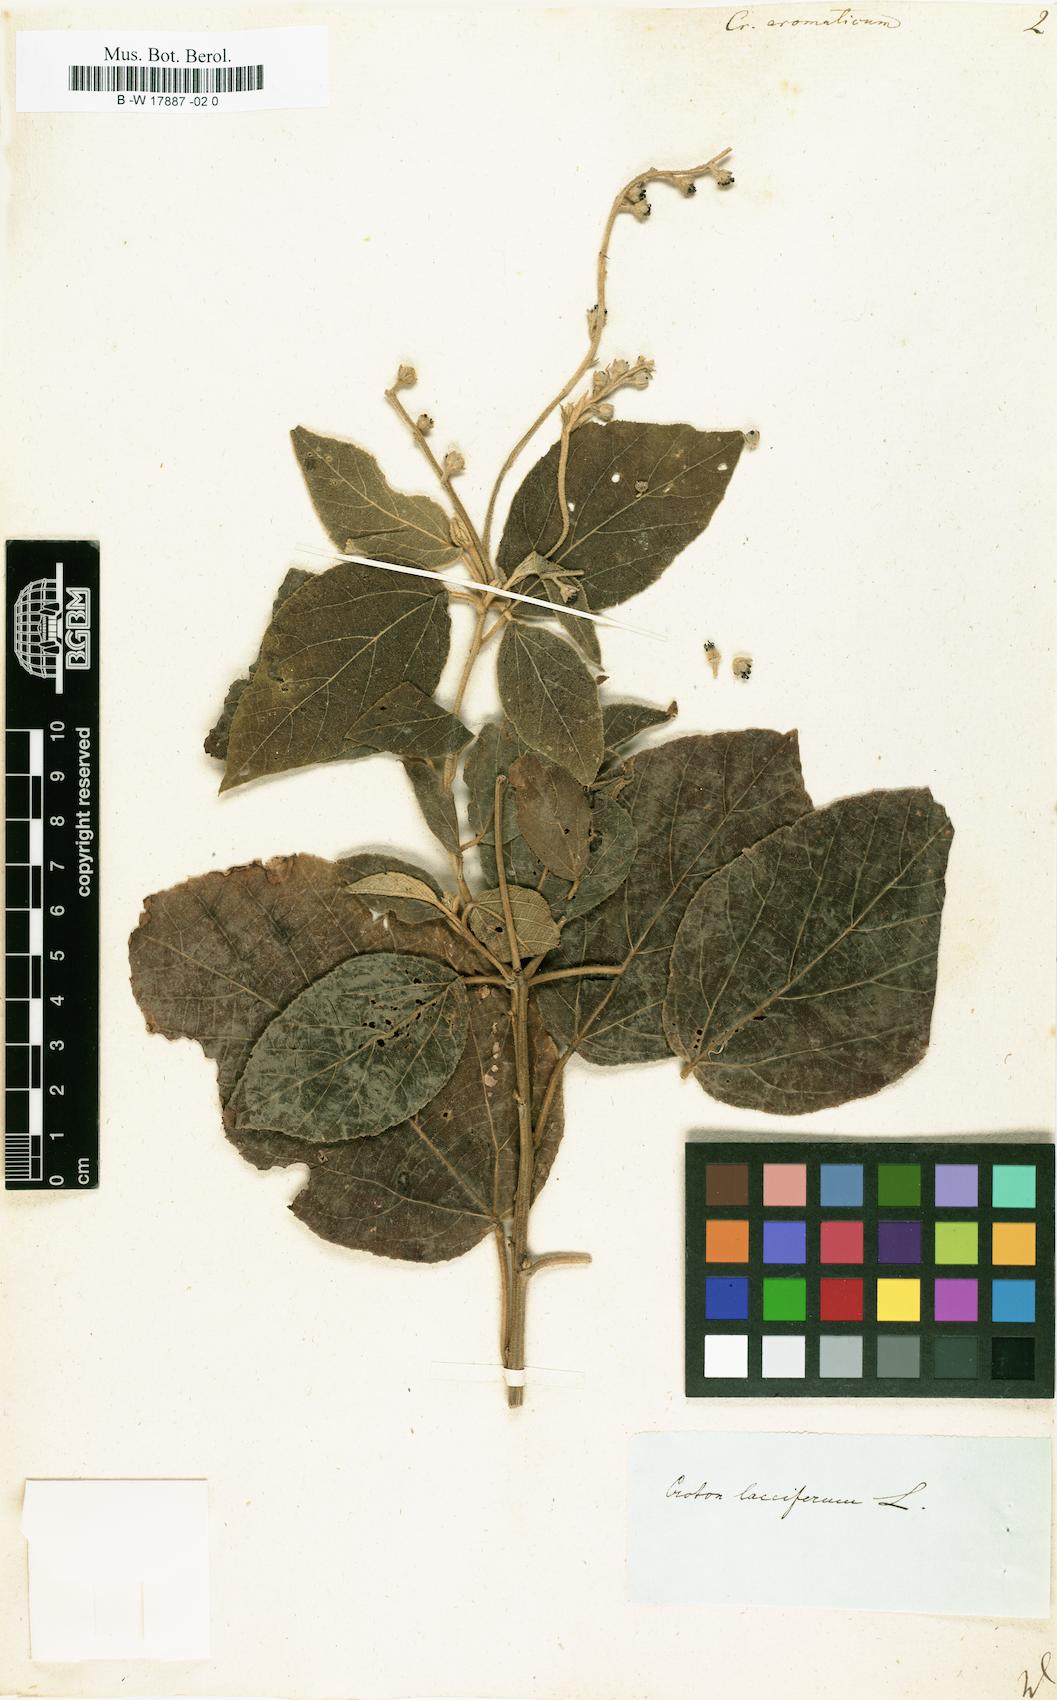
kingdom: Plantae
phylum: Tracheophyta
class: Magnoliopsida
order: Malpighiales
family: Euphorbiaceae
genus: Croton
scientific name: Croton aromaticus
